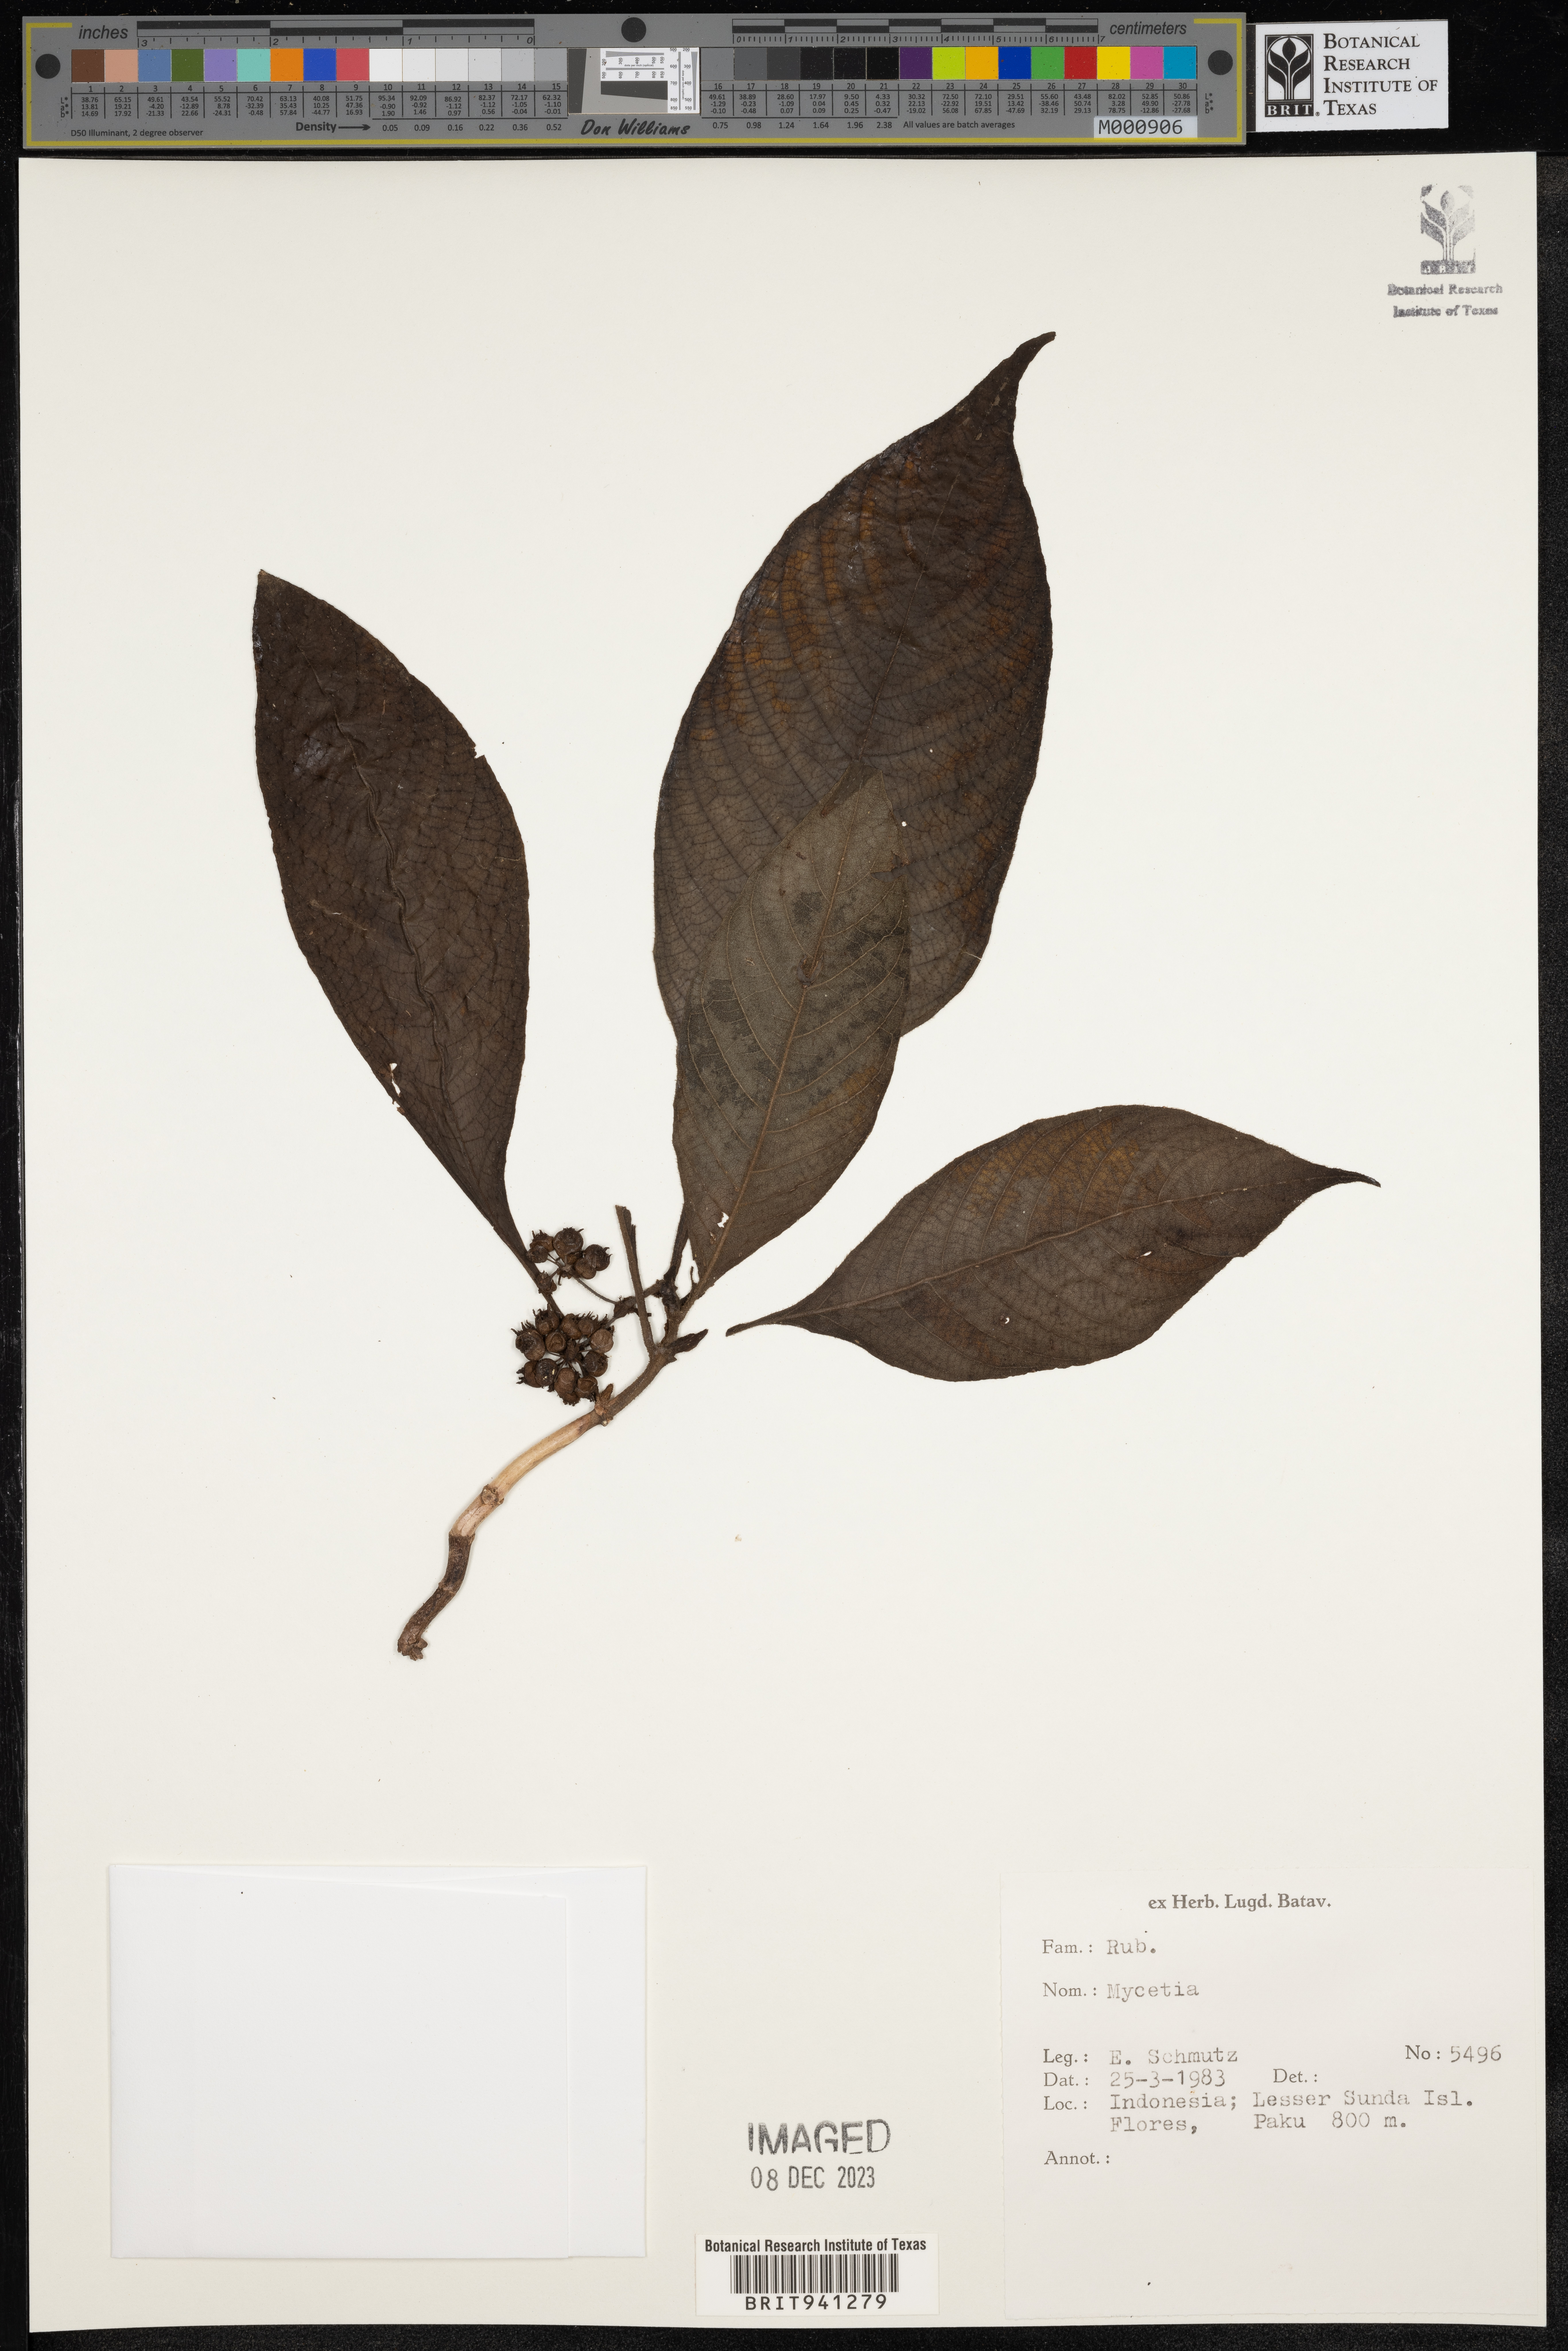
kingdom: Plantae
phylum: Tracheophyta
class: Magnoliopsida
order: Gentianales
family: Rubiaceae
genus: Mycetia
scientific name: Mycetia
